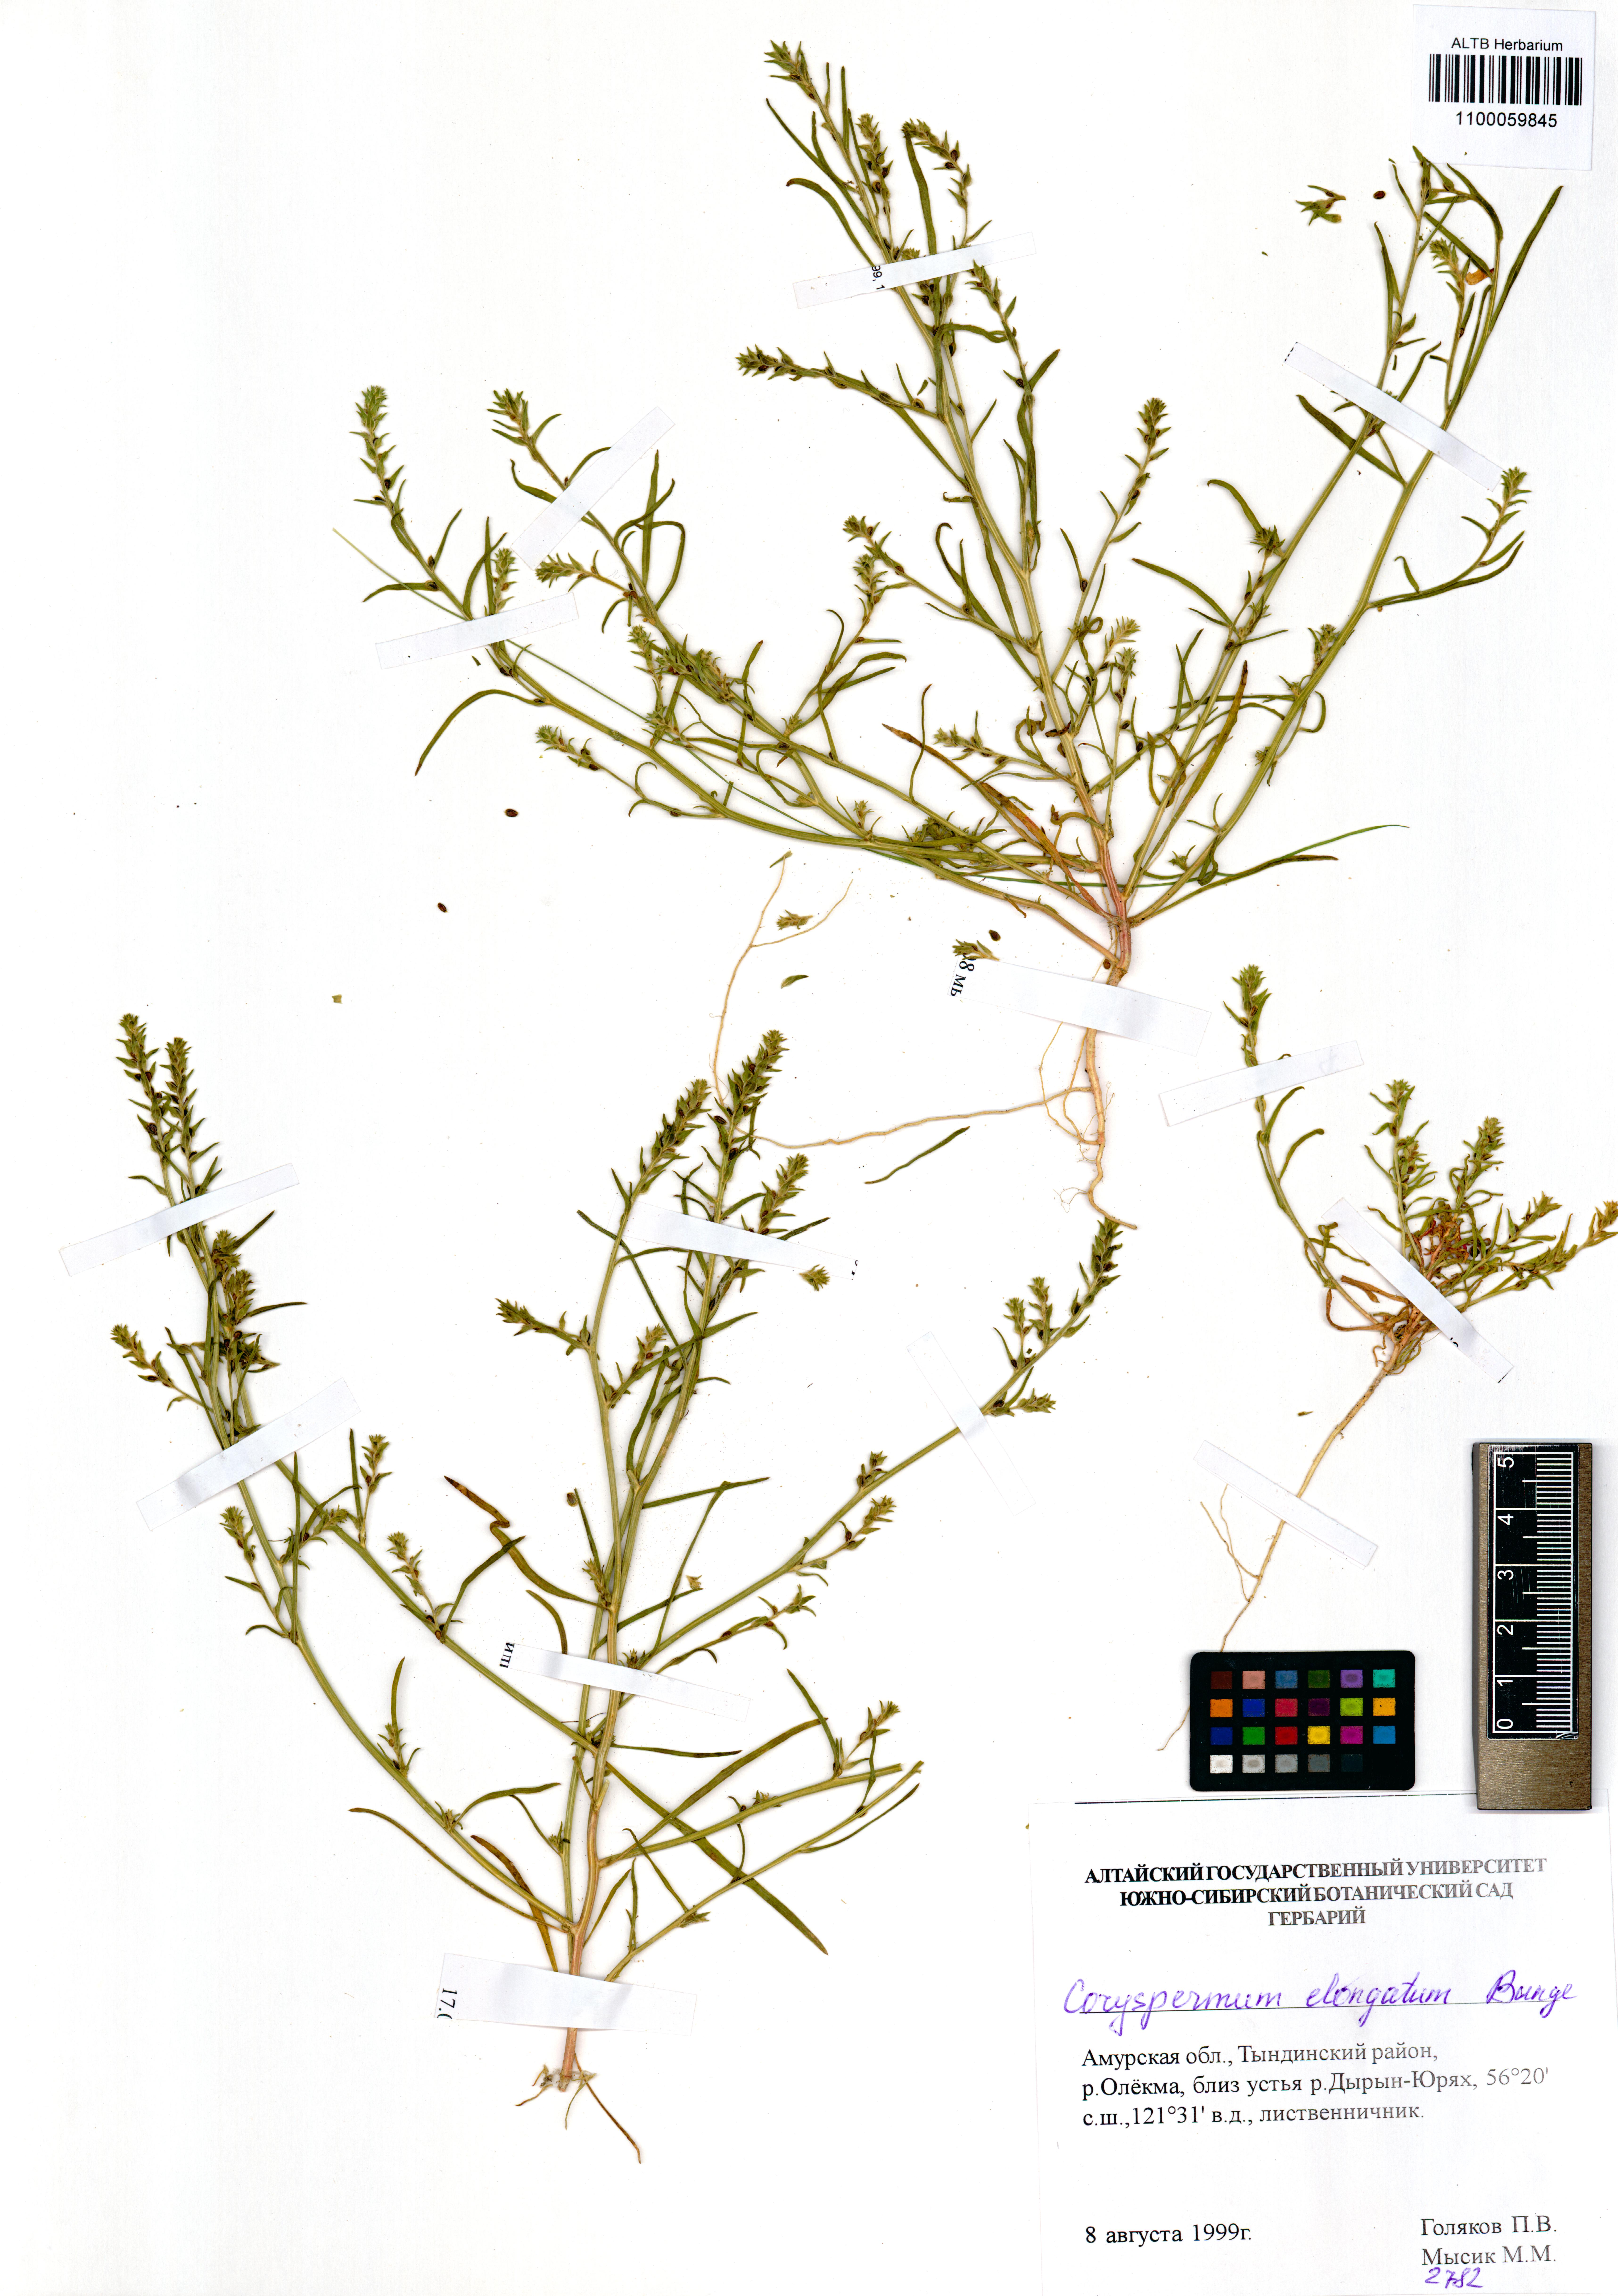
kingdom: Plantae
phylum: Tracheophyta
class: Magnoliopsida
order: Caryophyllales
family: Amaranthaceae
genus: Corispermum
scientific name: Corispermum elongatum
